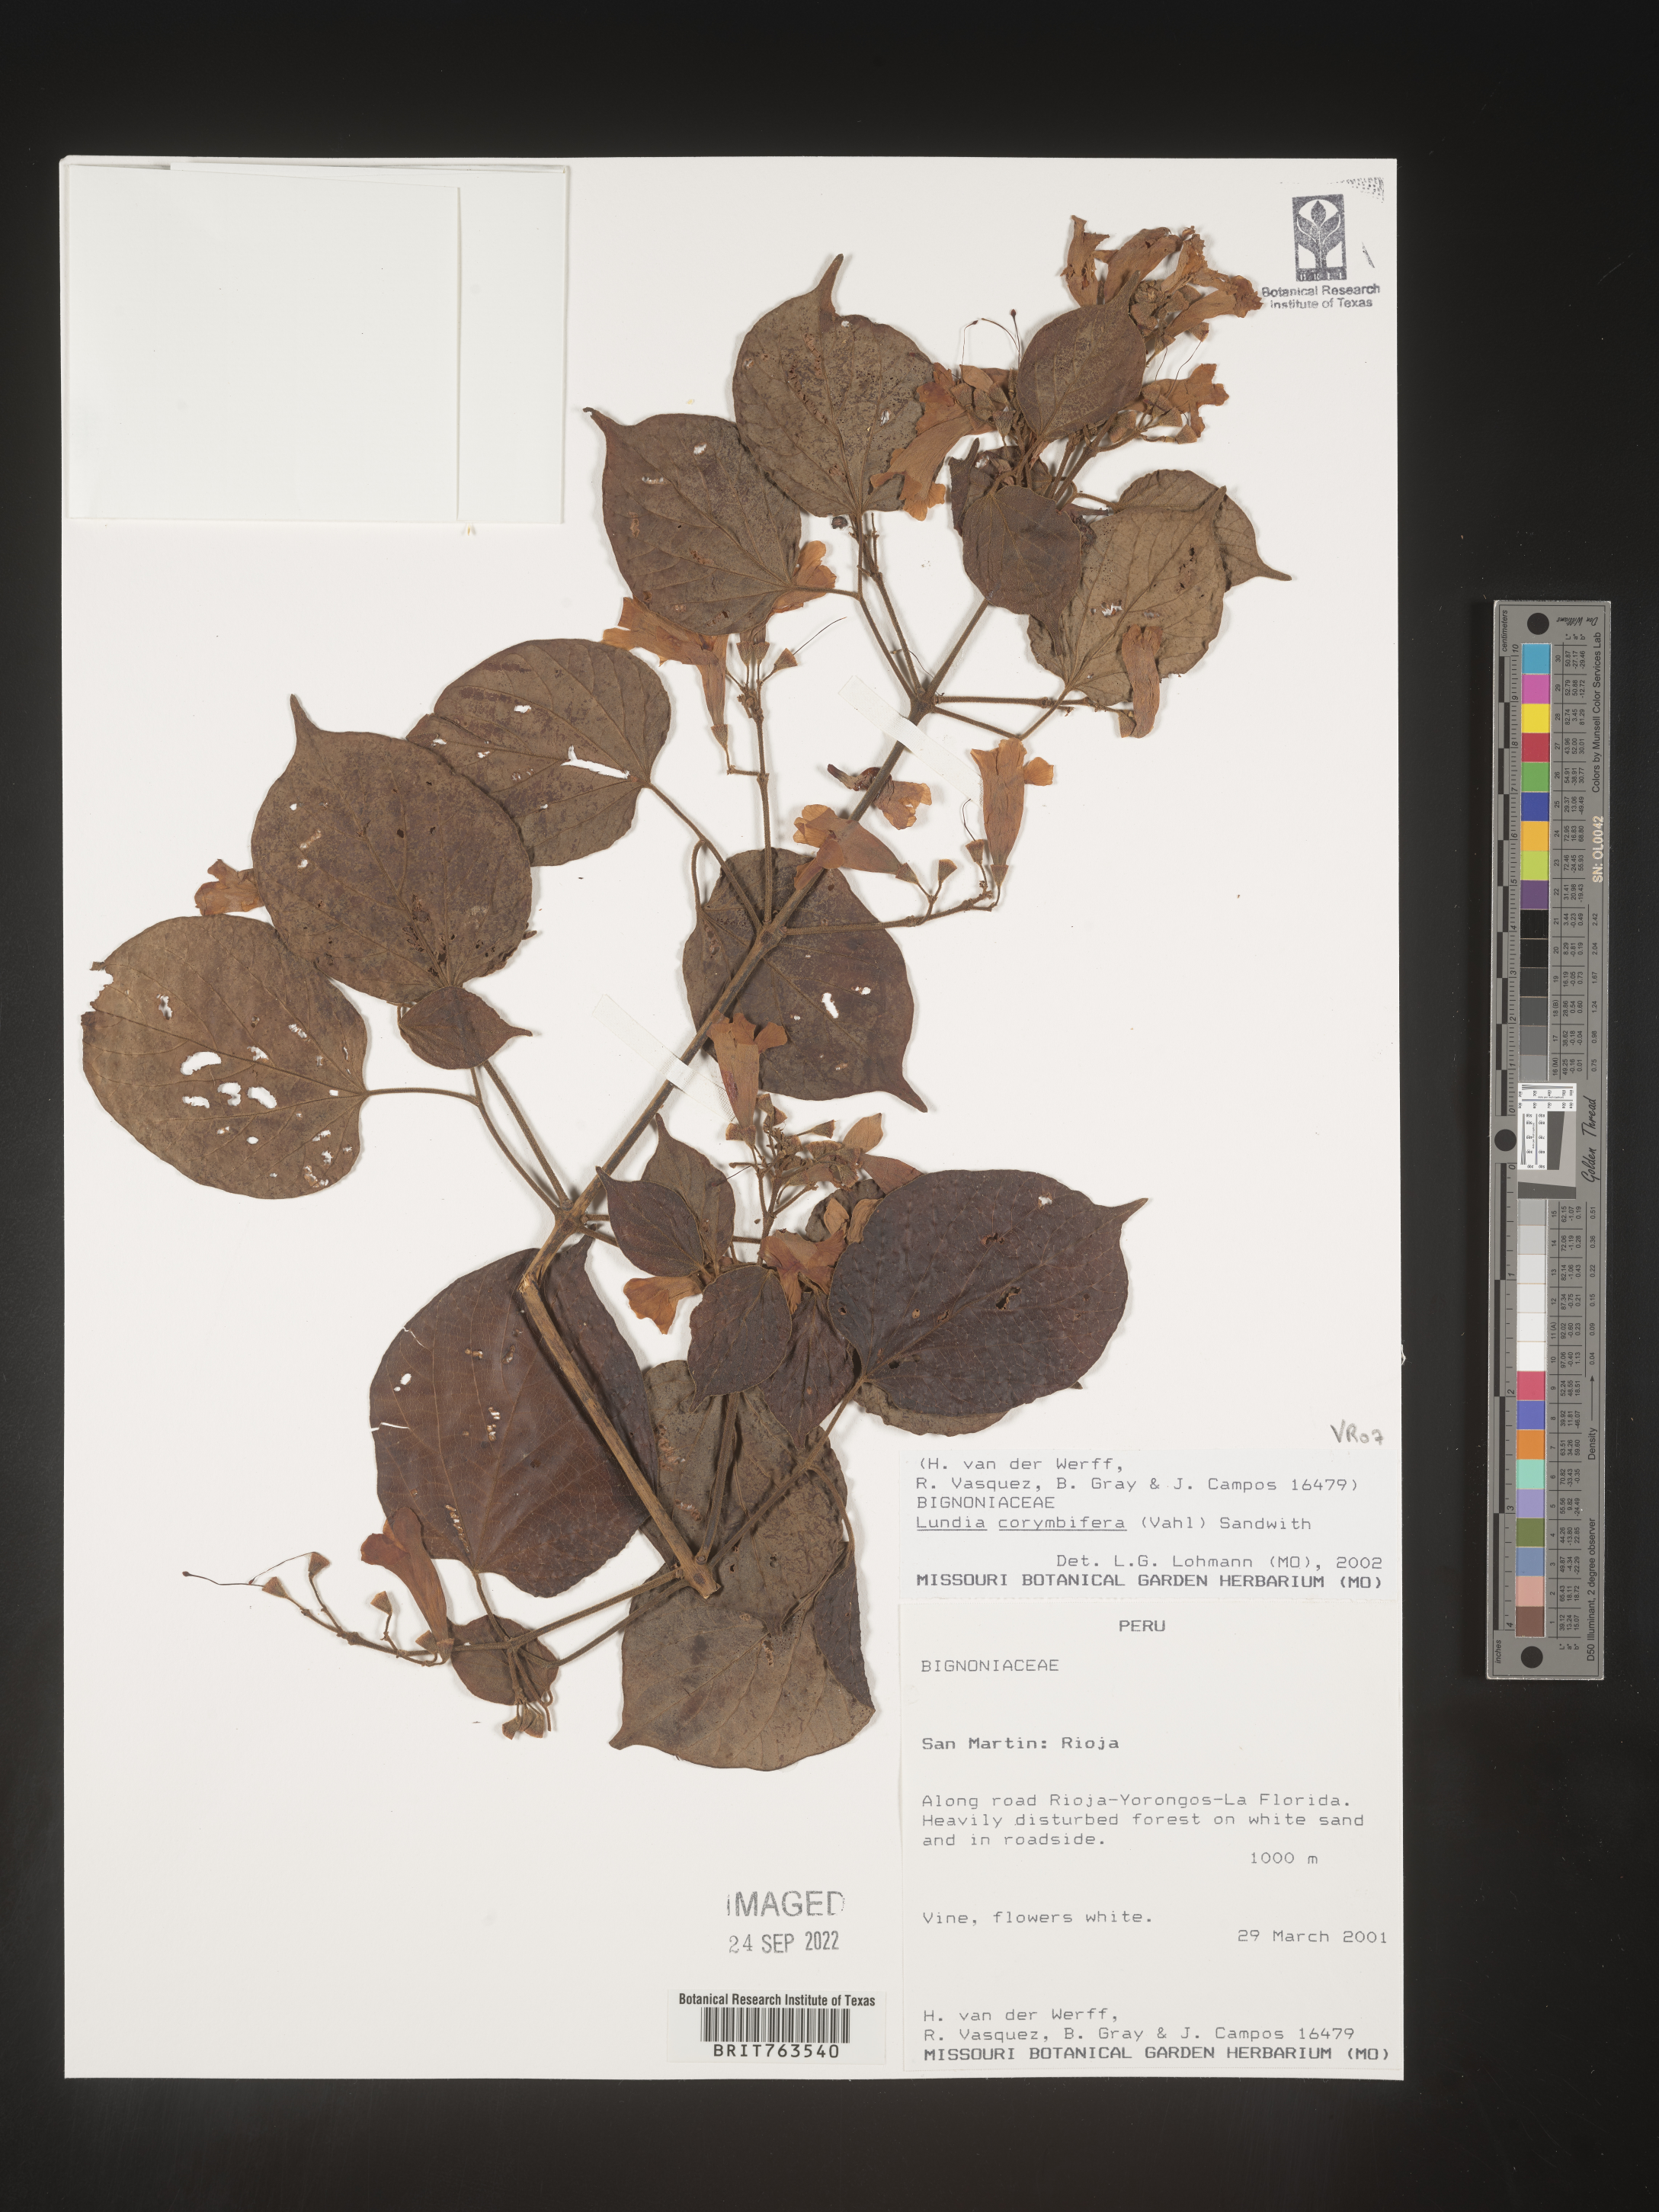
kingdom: Plantae
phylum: Tracheophyta
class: Magnoliopsida
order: Lamiales
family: Bignoniaceae
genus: Lundia
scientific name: Lundia
